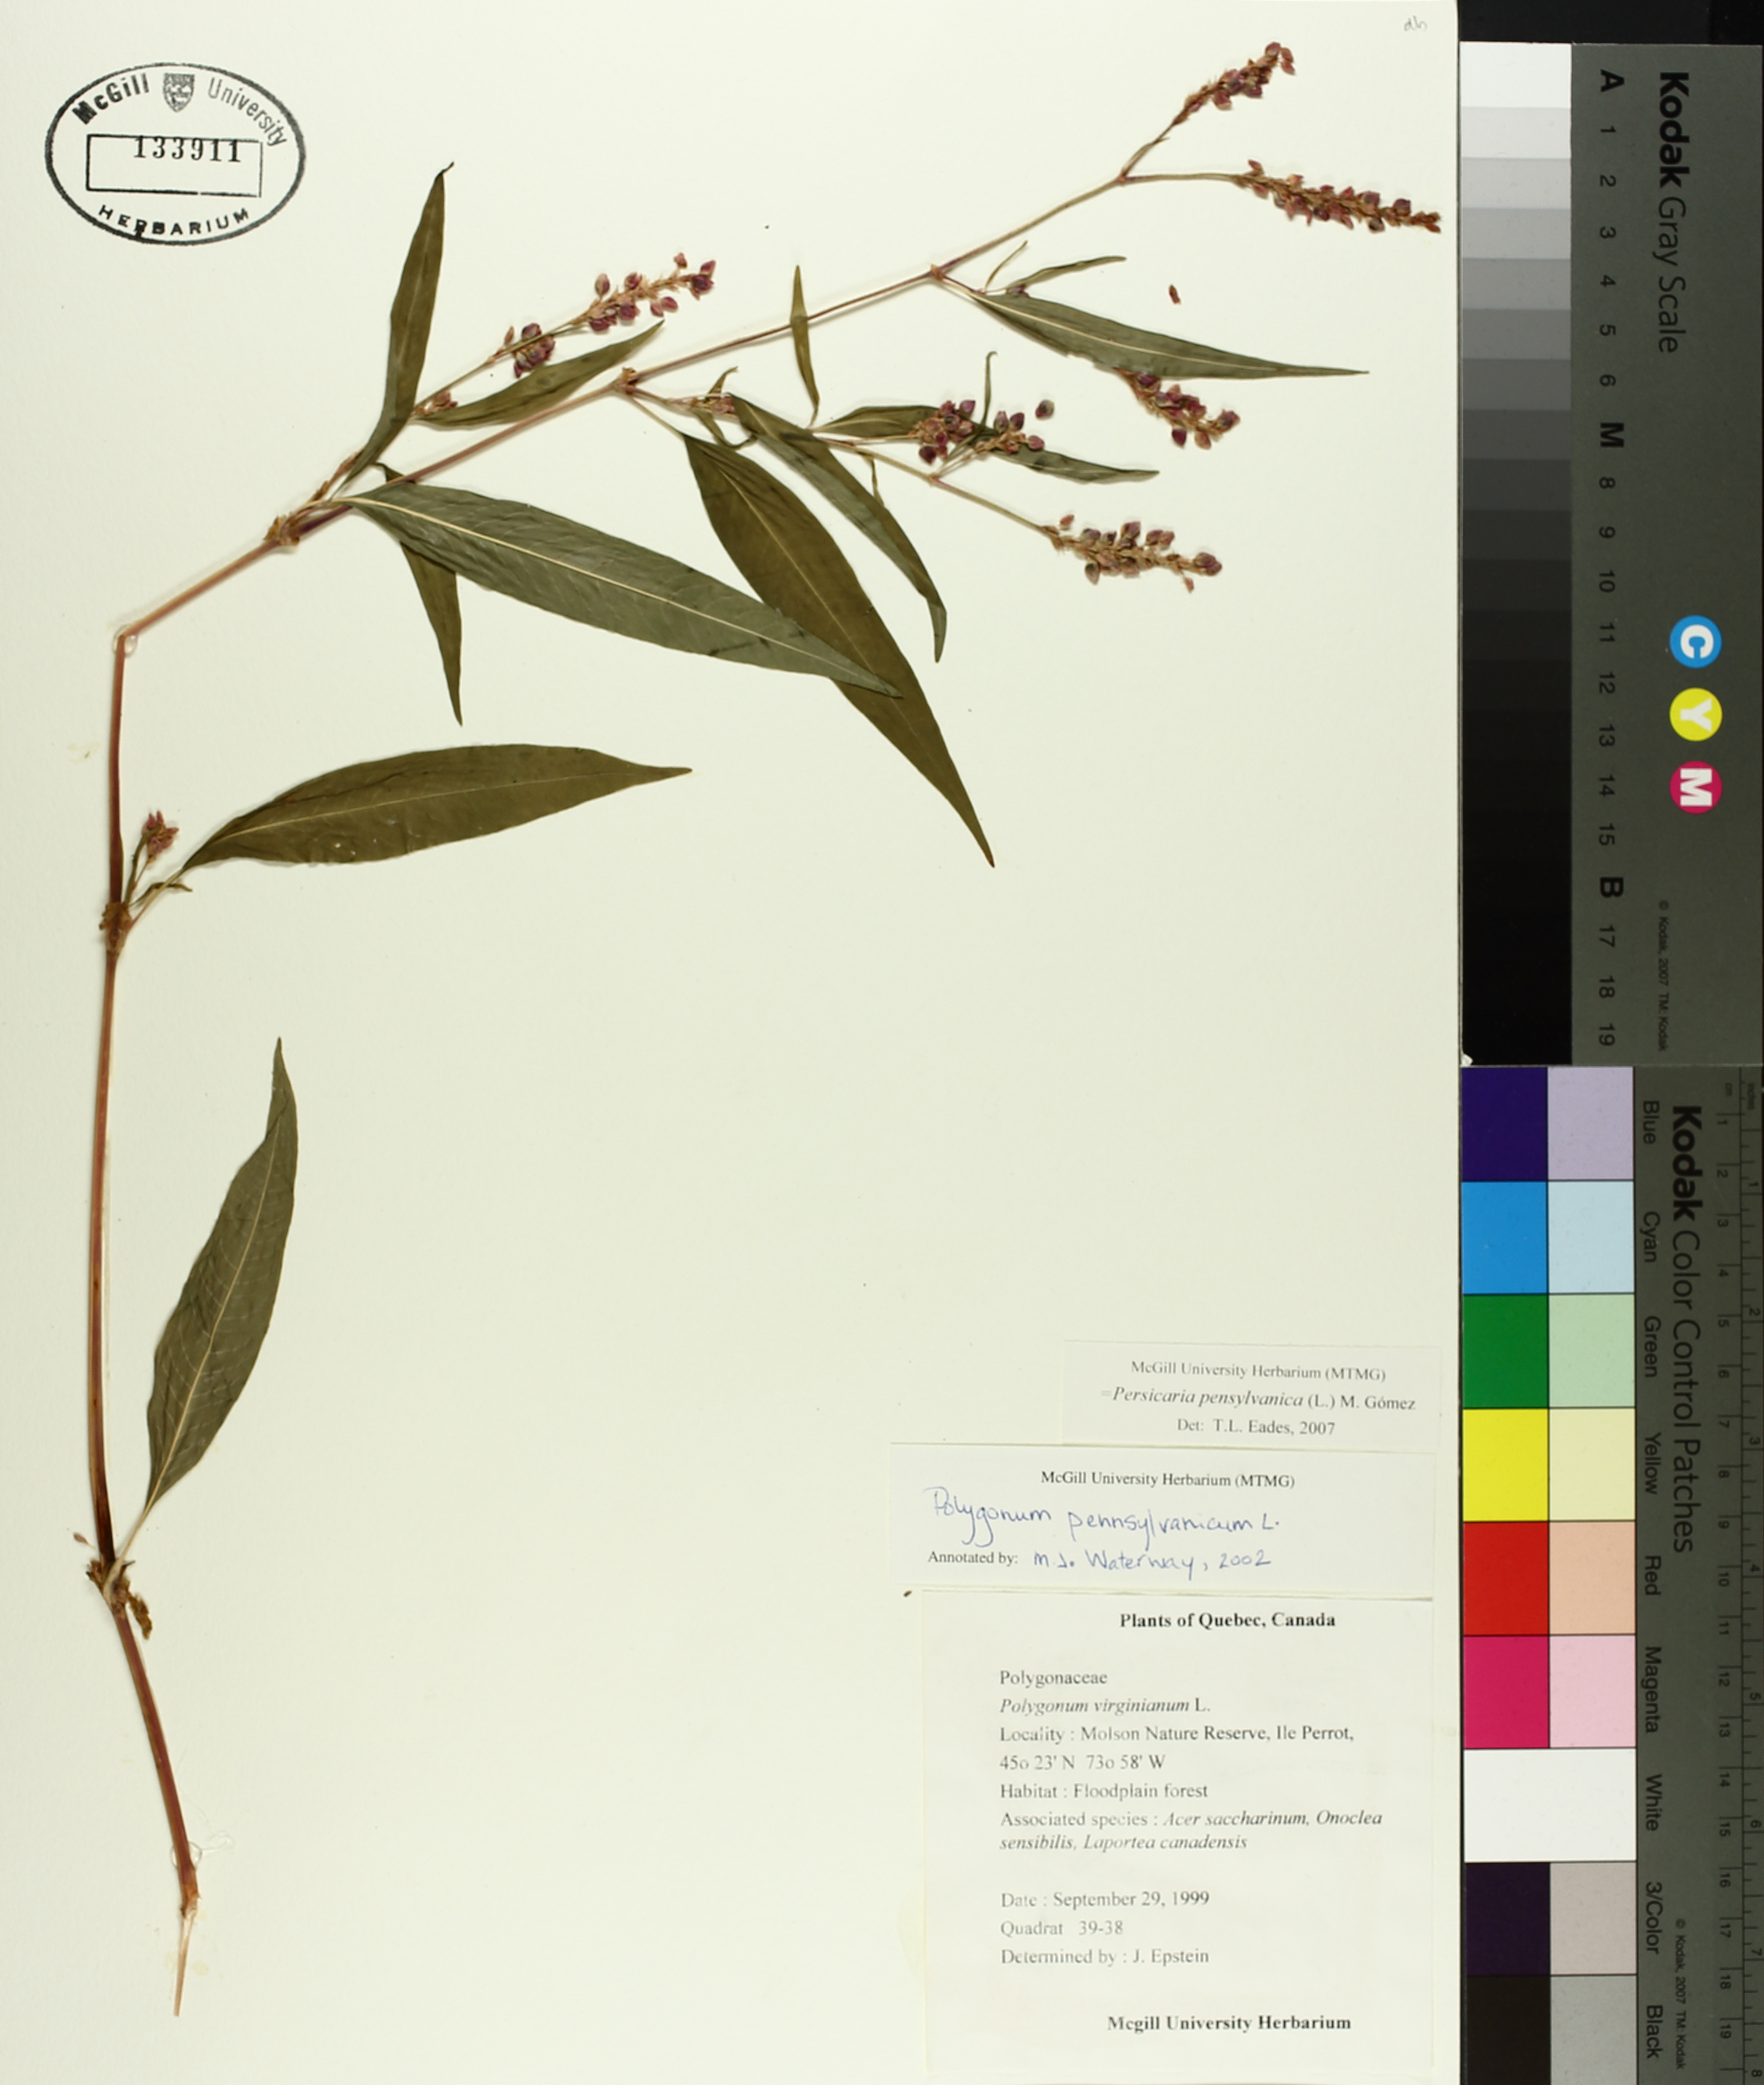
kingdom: Plantae
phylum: Tracheophyta
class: Magnoliopsida
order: Caryophyllales
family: Polygonaceae
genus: Persicaria
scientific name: Persicaria bungeana
